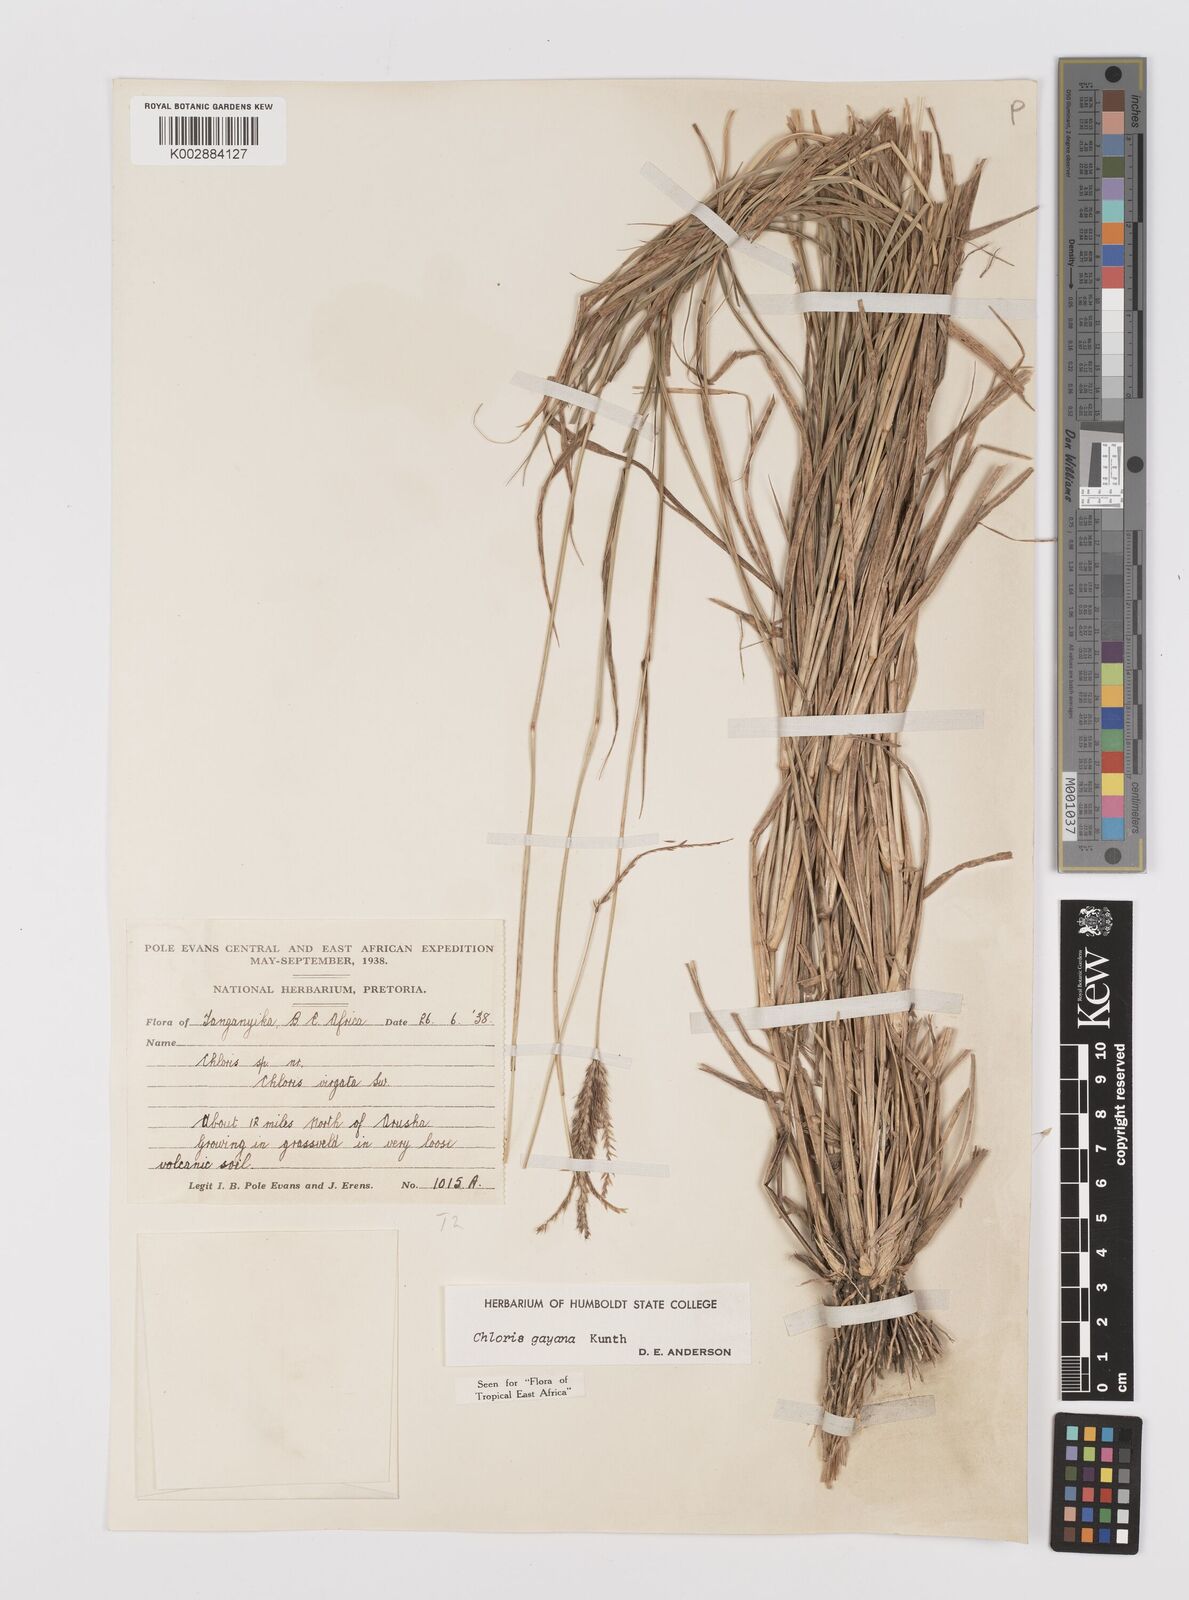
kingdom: Plantae
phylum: Tracheophyta
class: Liliopsida
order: Poales
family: Poaceae
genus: Chloris
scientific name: Chloris gayana
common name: Rhodes grass
